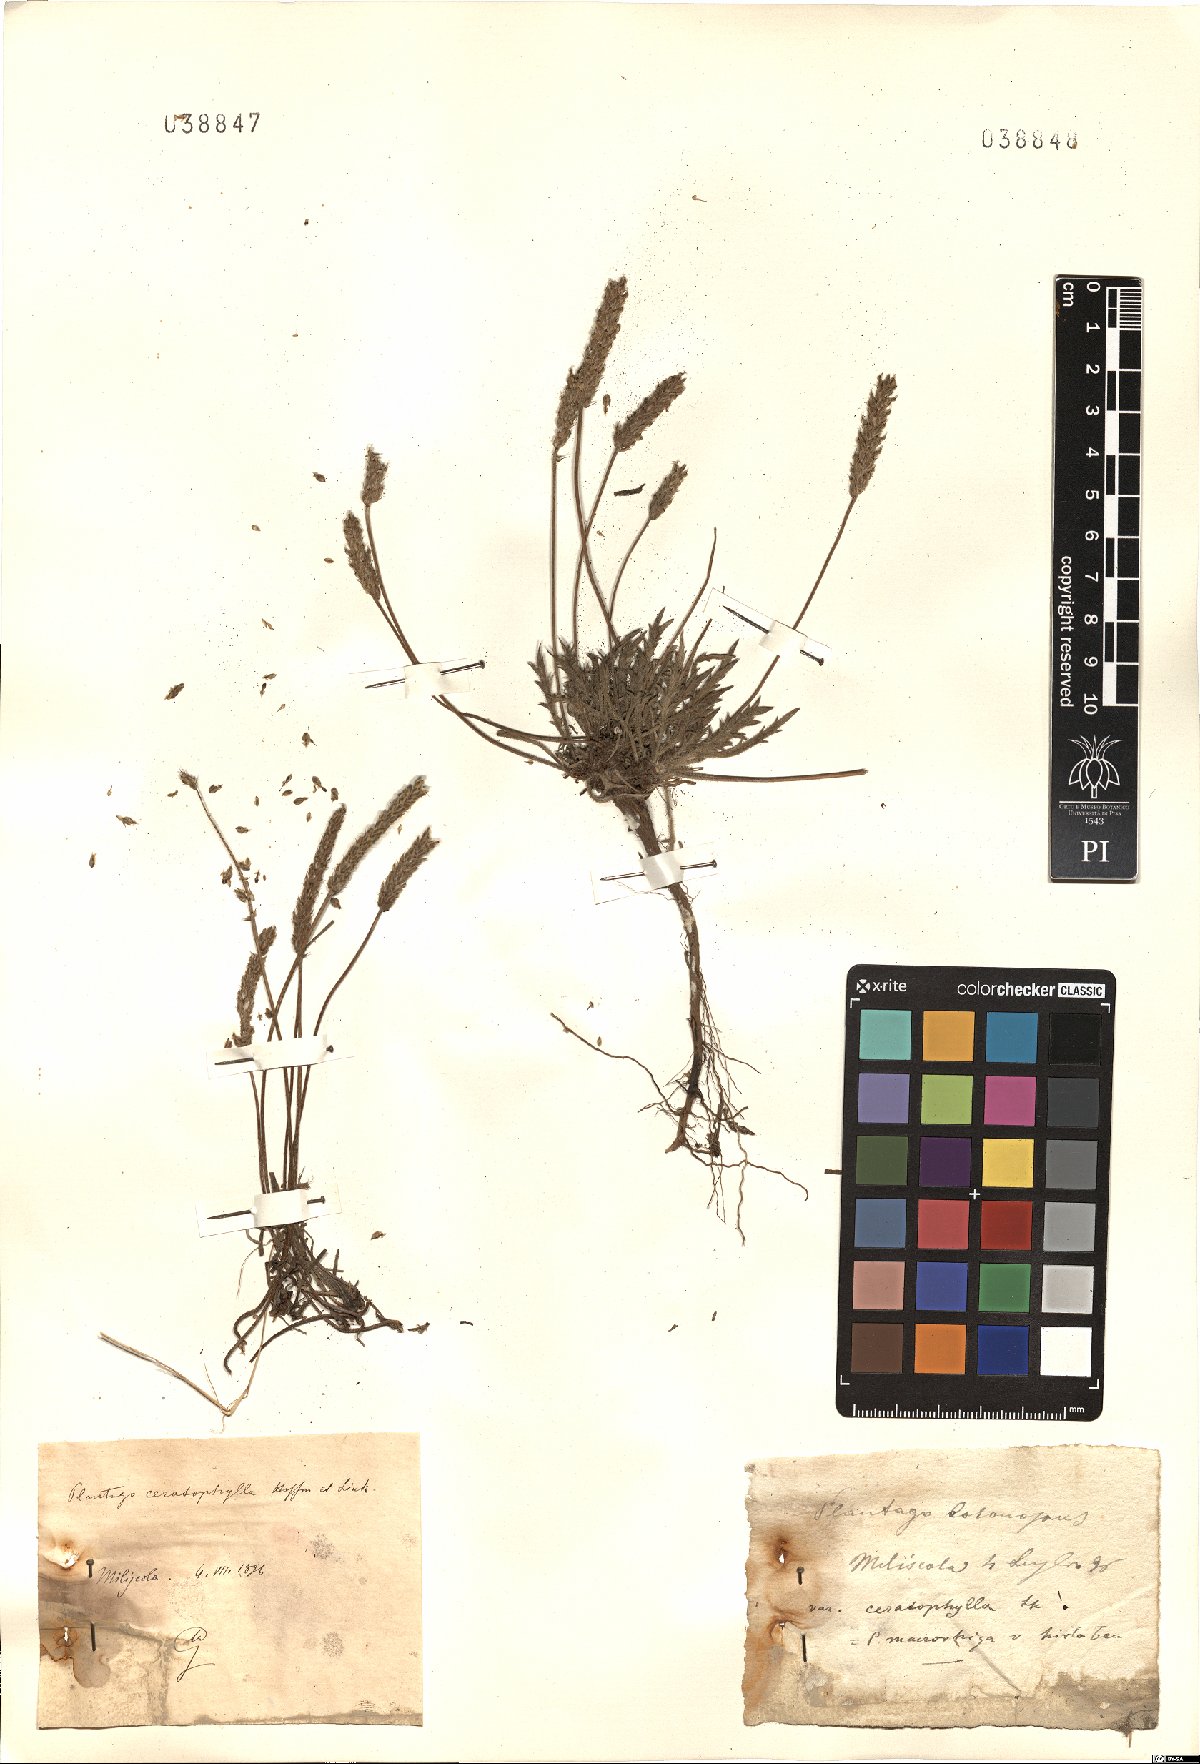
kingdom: Plantae
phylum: Tracheophyta
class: Magnoliopsida
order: Lamiales
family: Plantaginaceae
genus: Plantago
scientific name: Plantago coronopus
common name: Buck's-horn plantain
